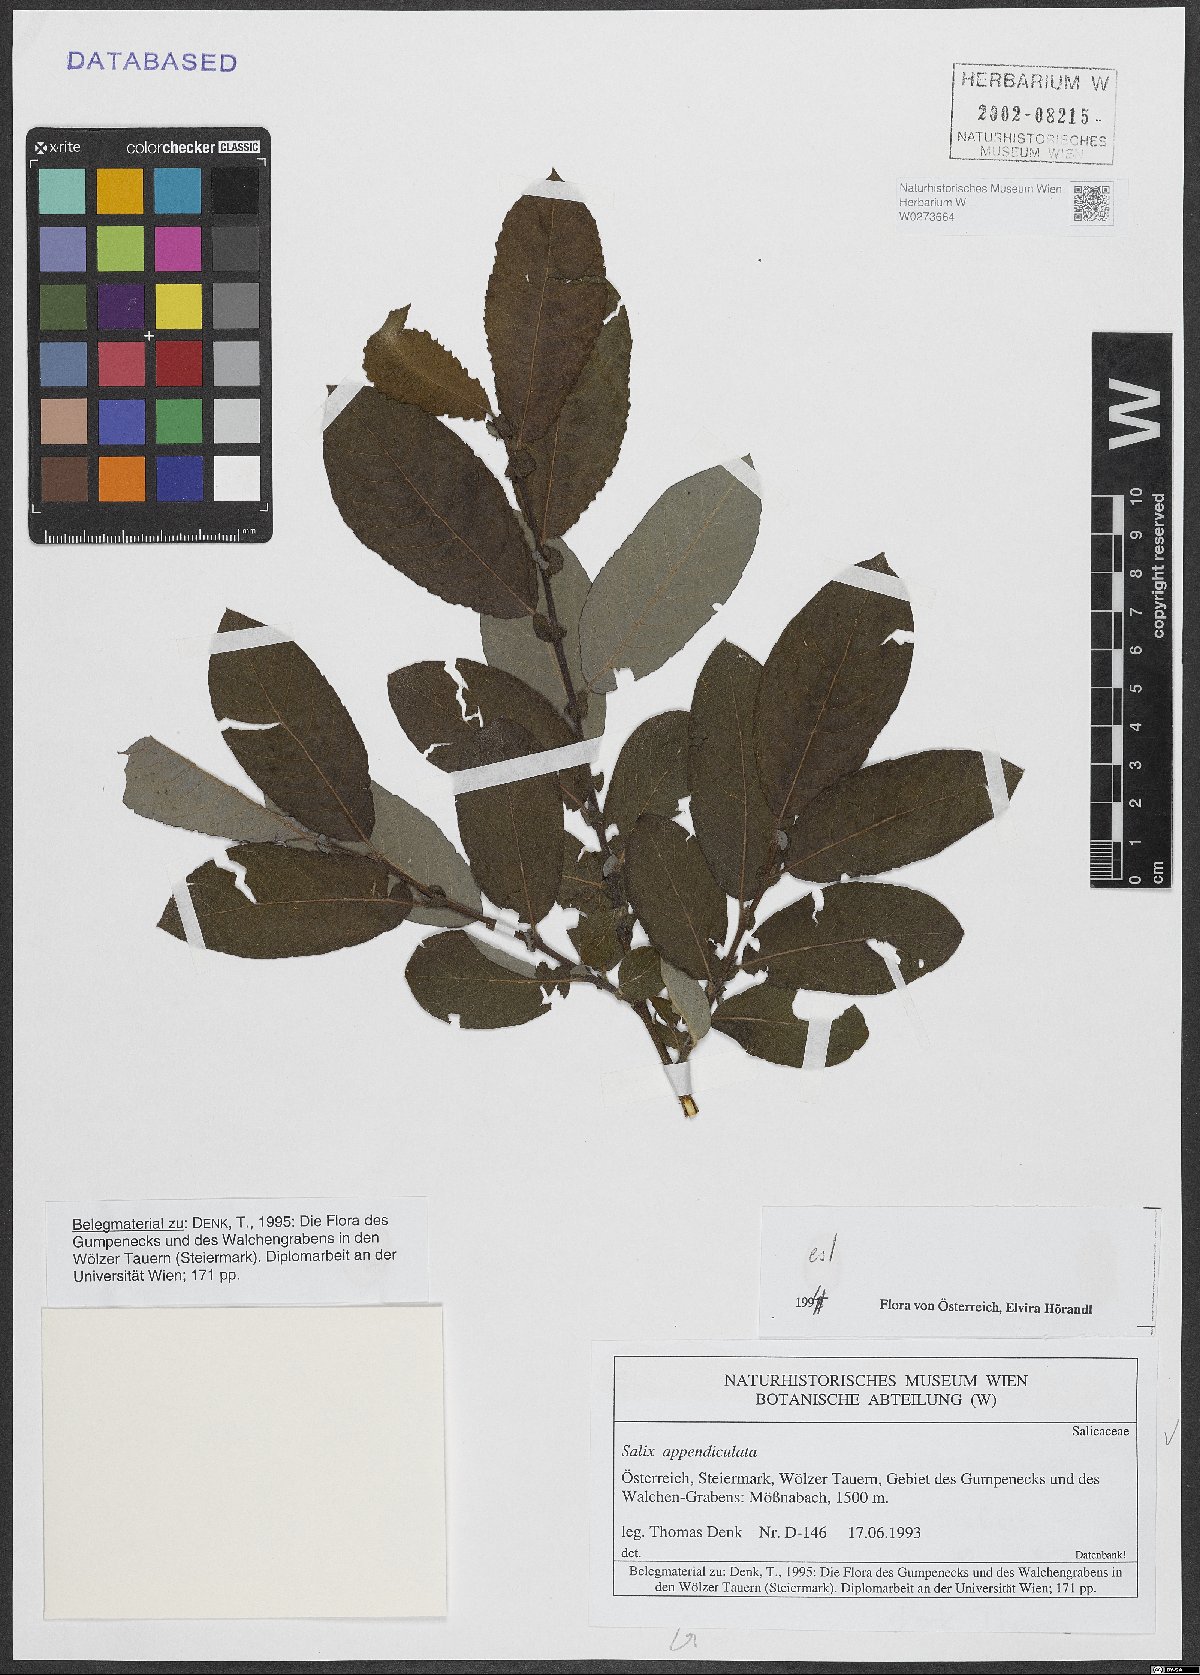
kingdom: Plantae
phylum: Tracheophyta
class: Magnoliopsida
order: Malpighiales
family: Salicaceae
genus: Salix
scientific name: Salix appendiculata
